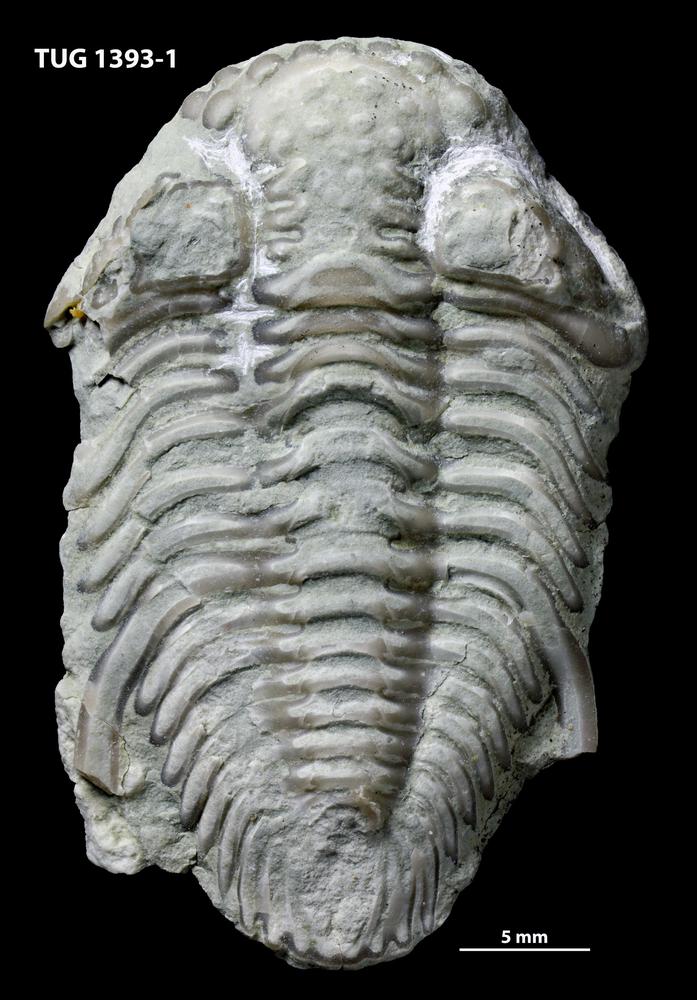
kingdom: Animalia
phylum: Arthropoda
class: Trilobita
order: Phacopida
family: Encrinuridae
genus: Atractopyge
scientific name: Atractopyge kutorgae
